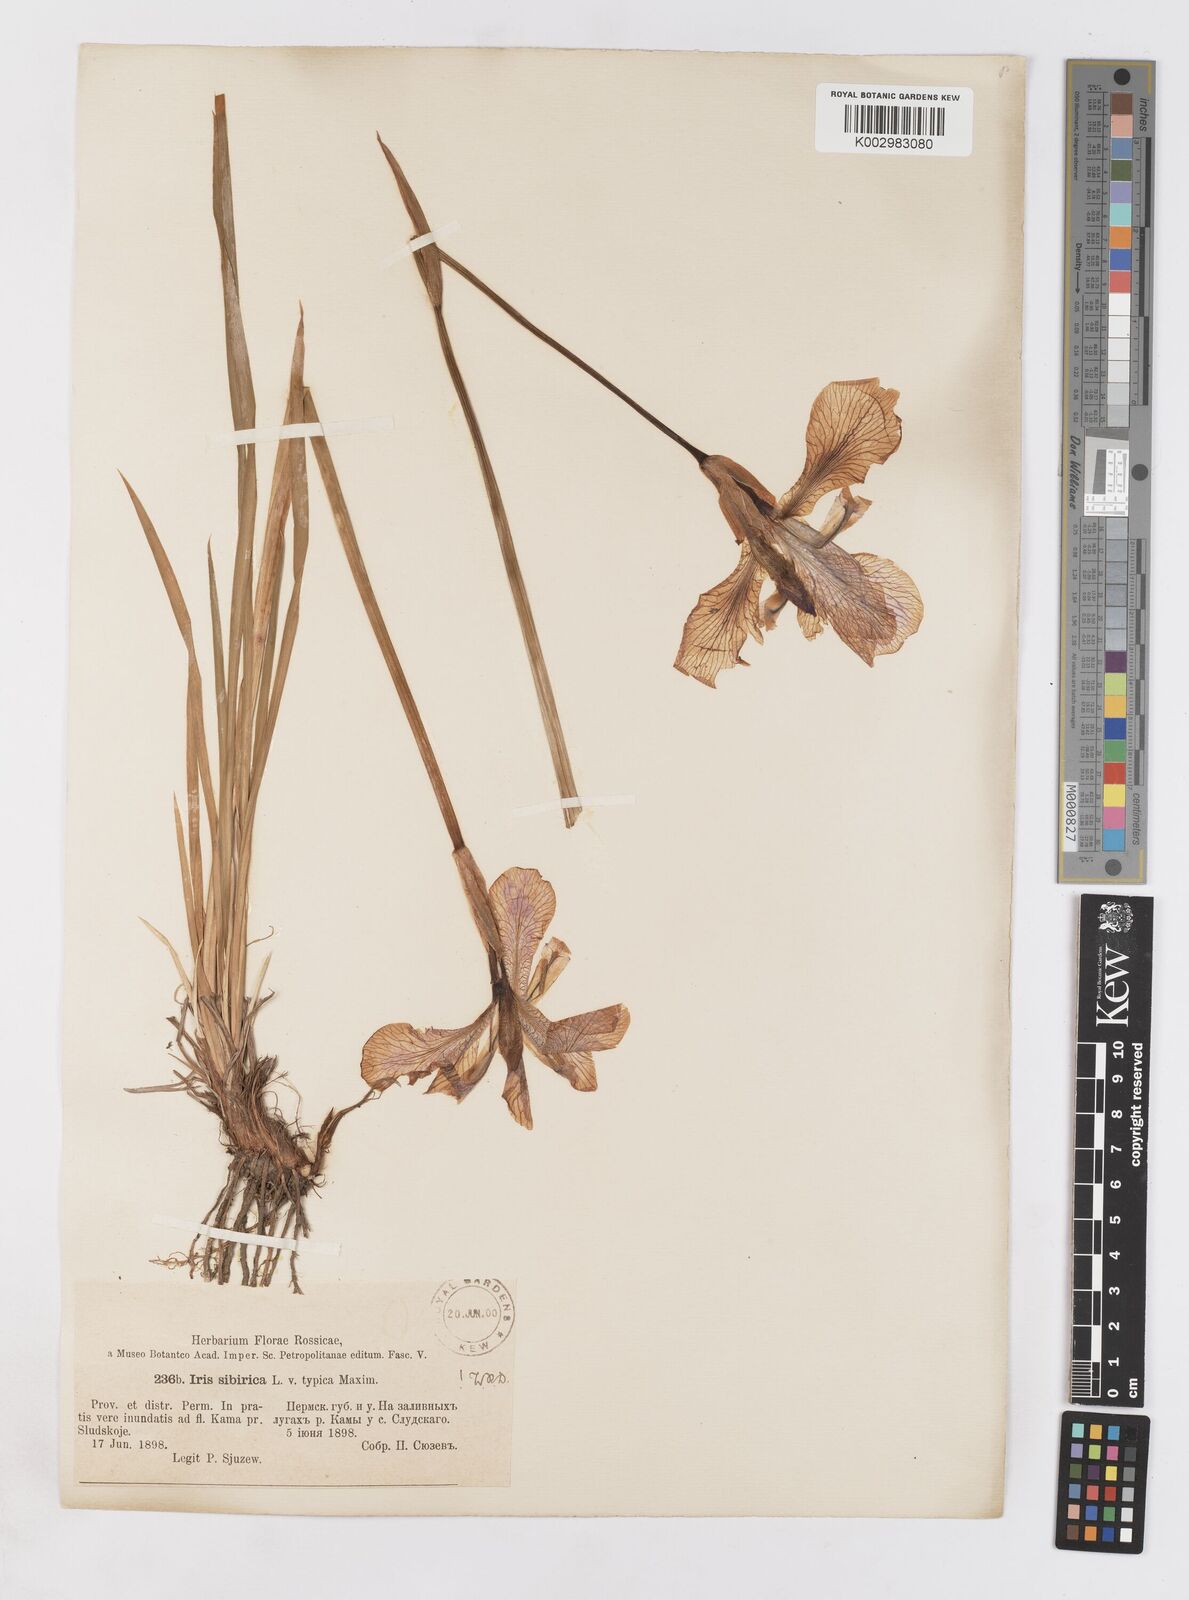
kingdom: Plantae
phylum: Tracheophyta
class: Liliopsida
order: Asparagales
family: Iridaceae
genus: Iris
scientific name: Iris sibirica
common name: Siberian iris
